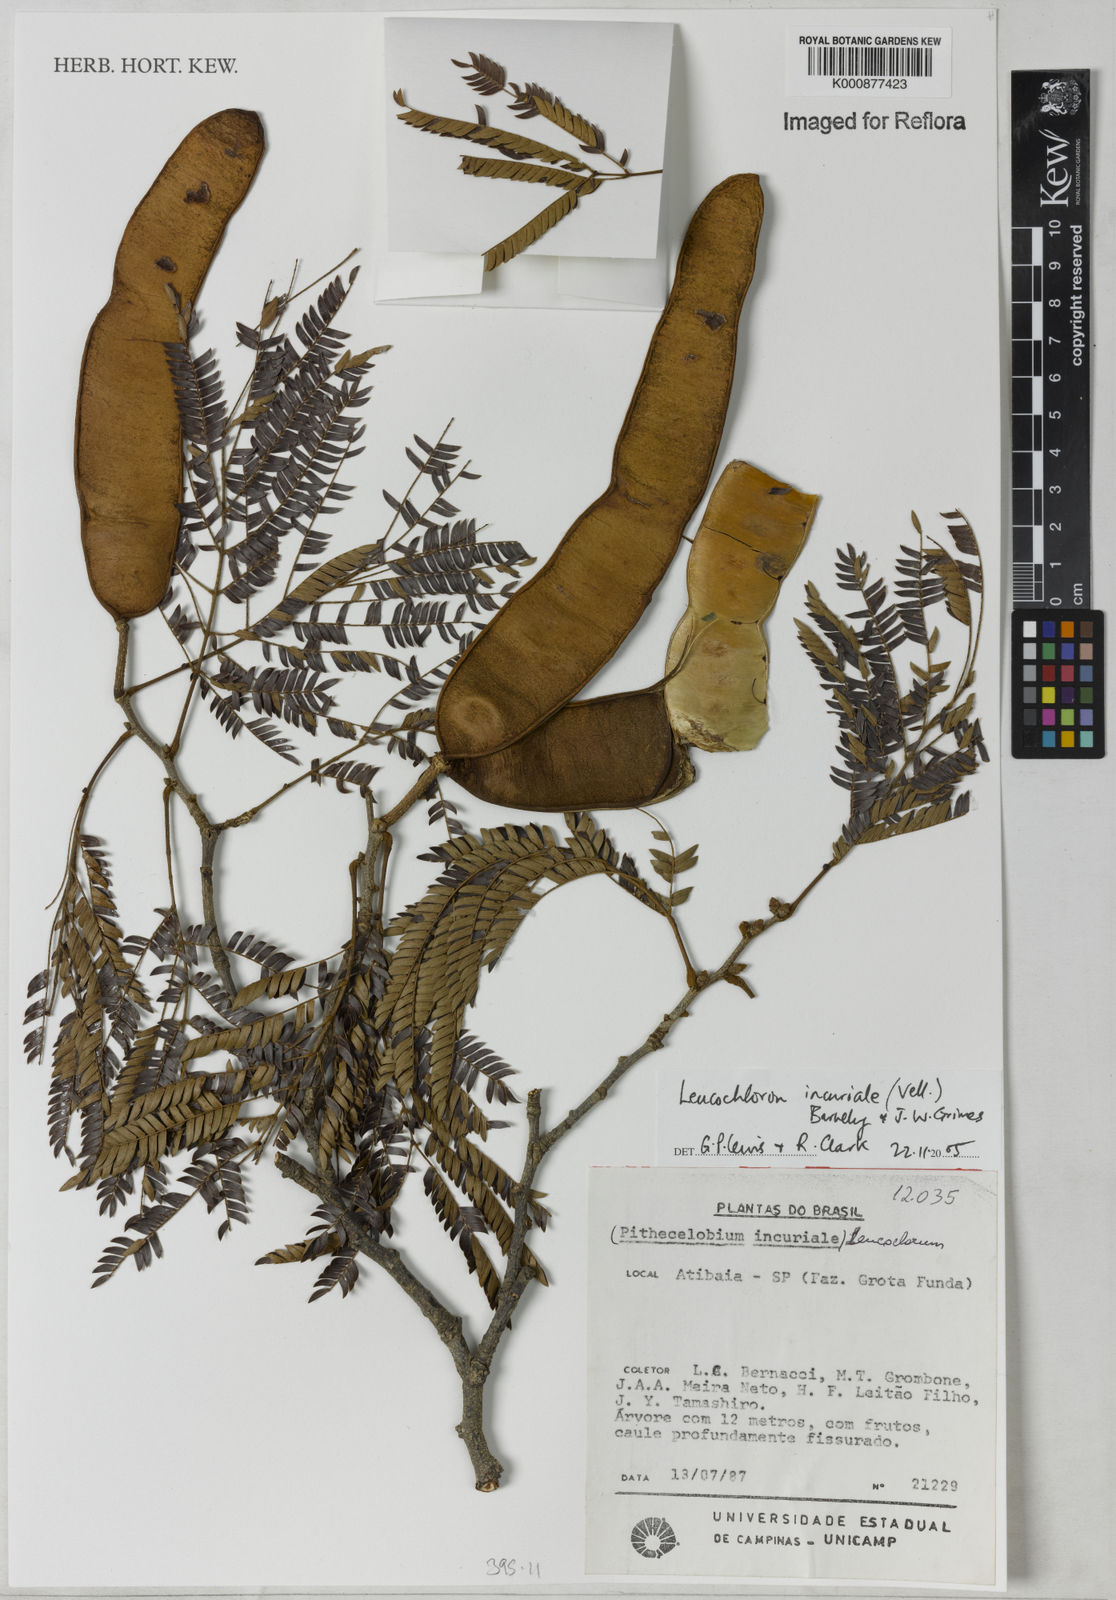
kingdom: Plantae
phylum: Tracheophyta
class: Magnoliopsida
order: Fabales
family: Fabaceae
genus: Leucochloron
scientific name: Leucochloron incuriale
